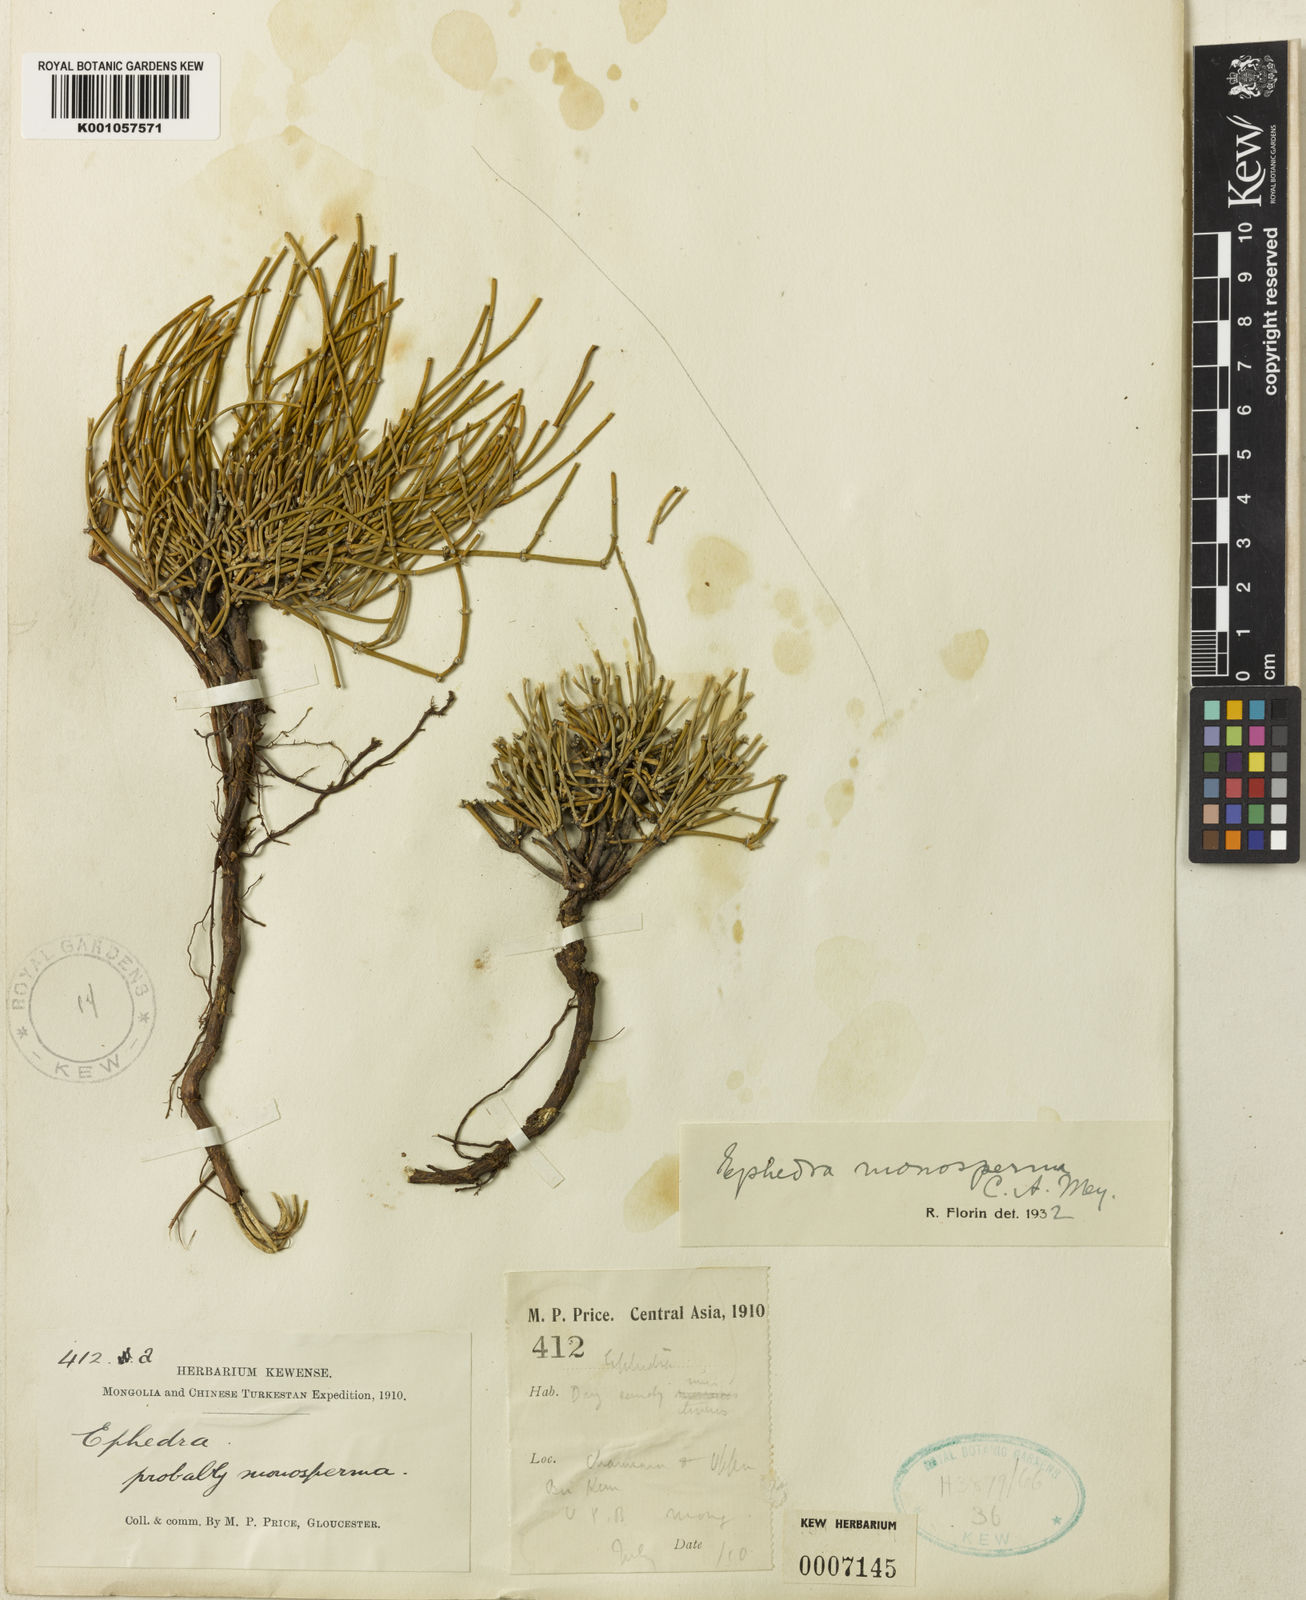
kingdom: Plantae
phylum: Tracheophyta
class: Gnetopsida
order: Ephedrales
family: Ephedraceae
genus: Ephedra
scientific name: Ephedra monosperma
